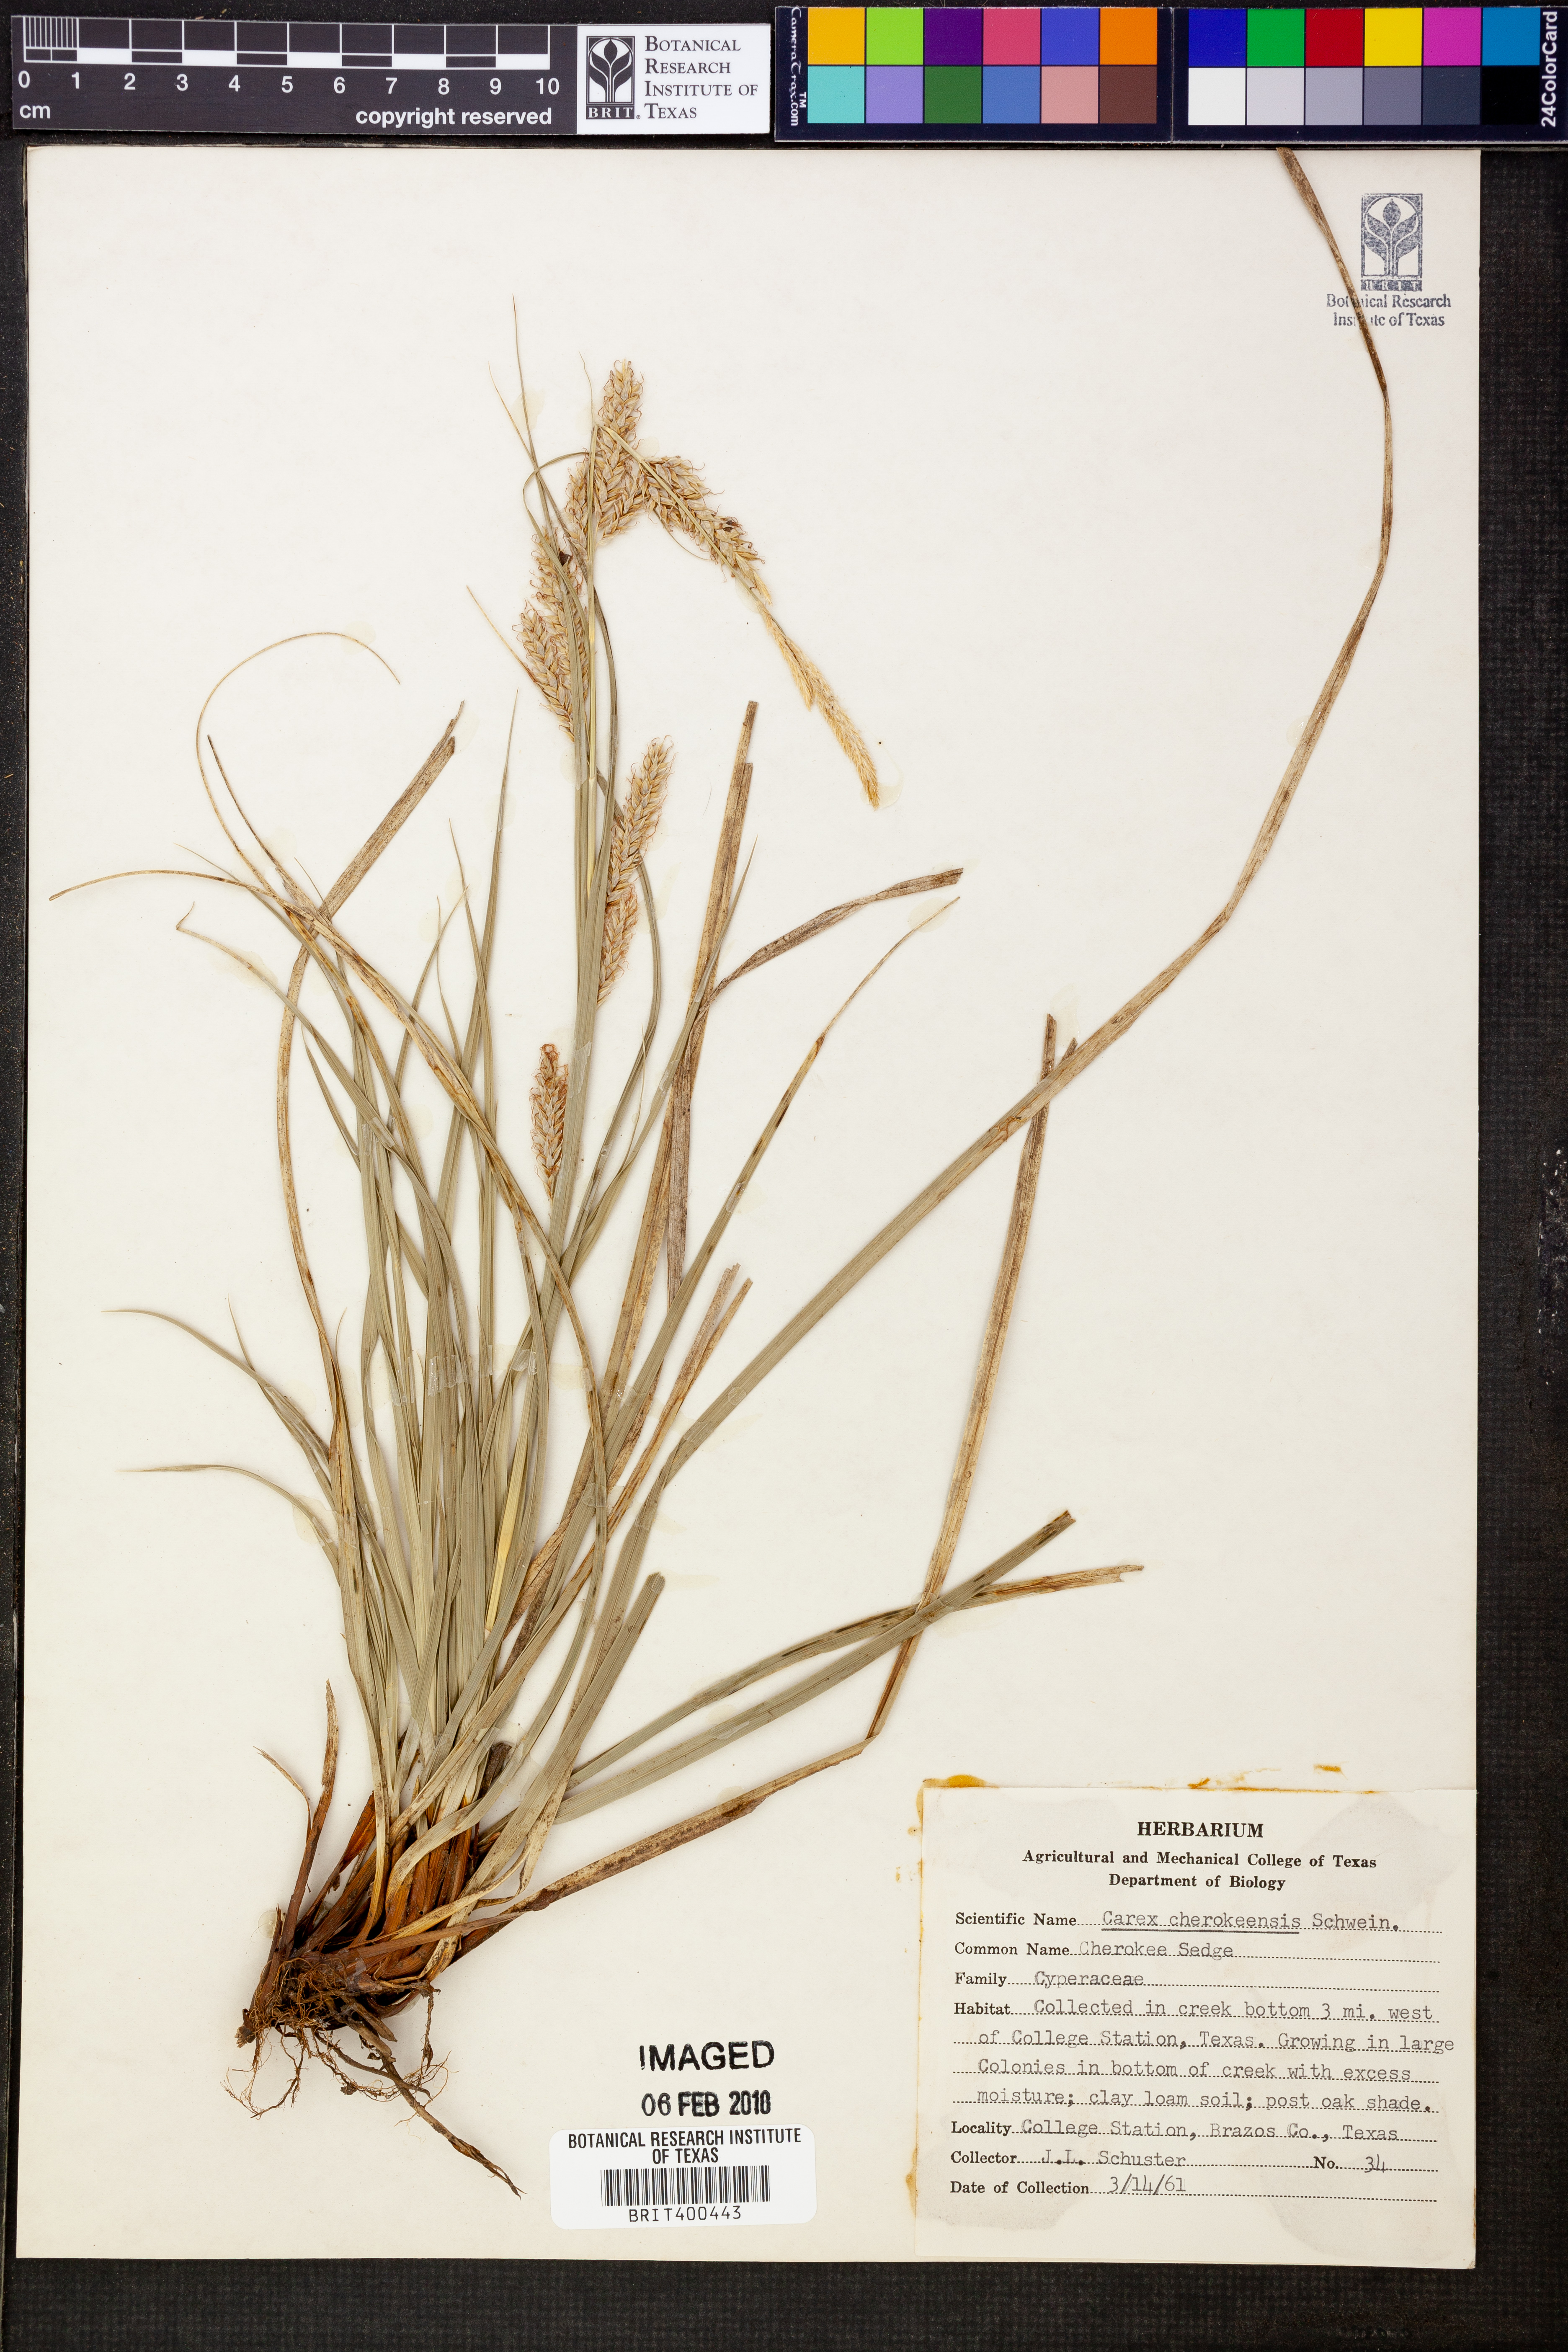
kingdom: Plantae
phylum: Tracheophyta
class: Liliopsida
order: Poales
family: Cyperaceae
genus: Carex
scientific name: Carex cherokeensis
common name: Cherokee sedge
